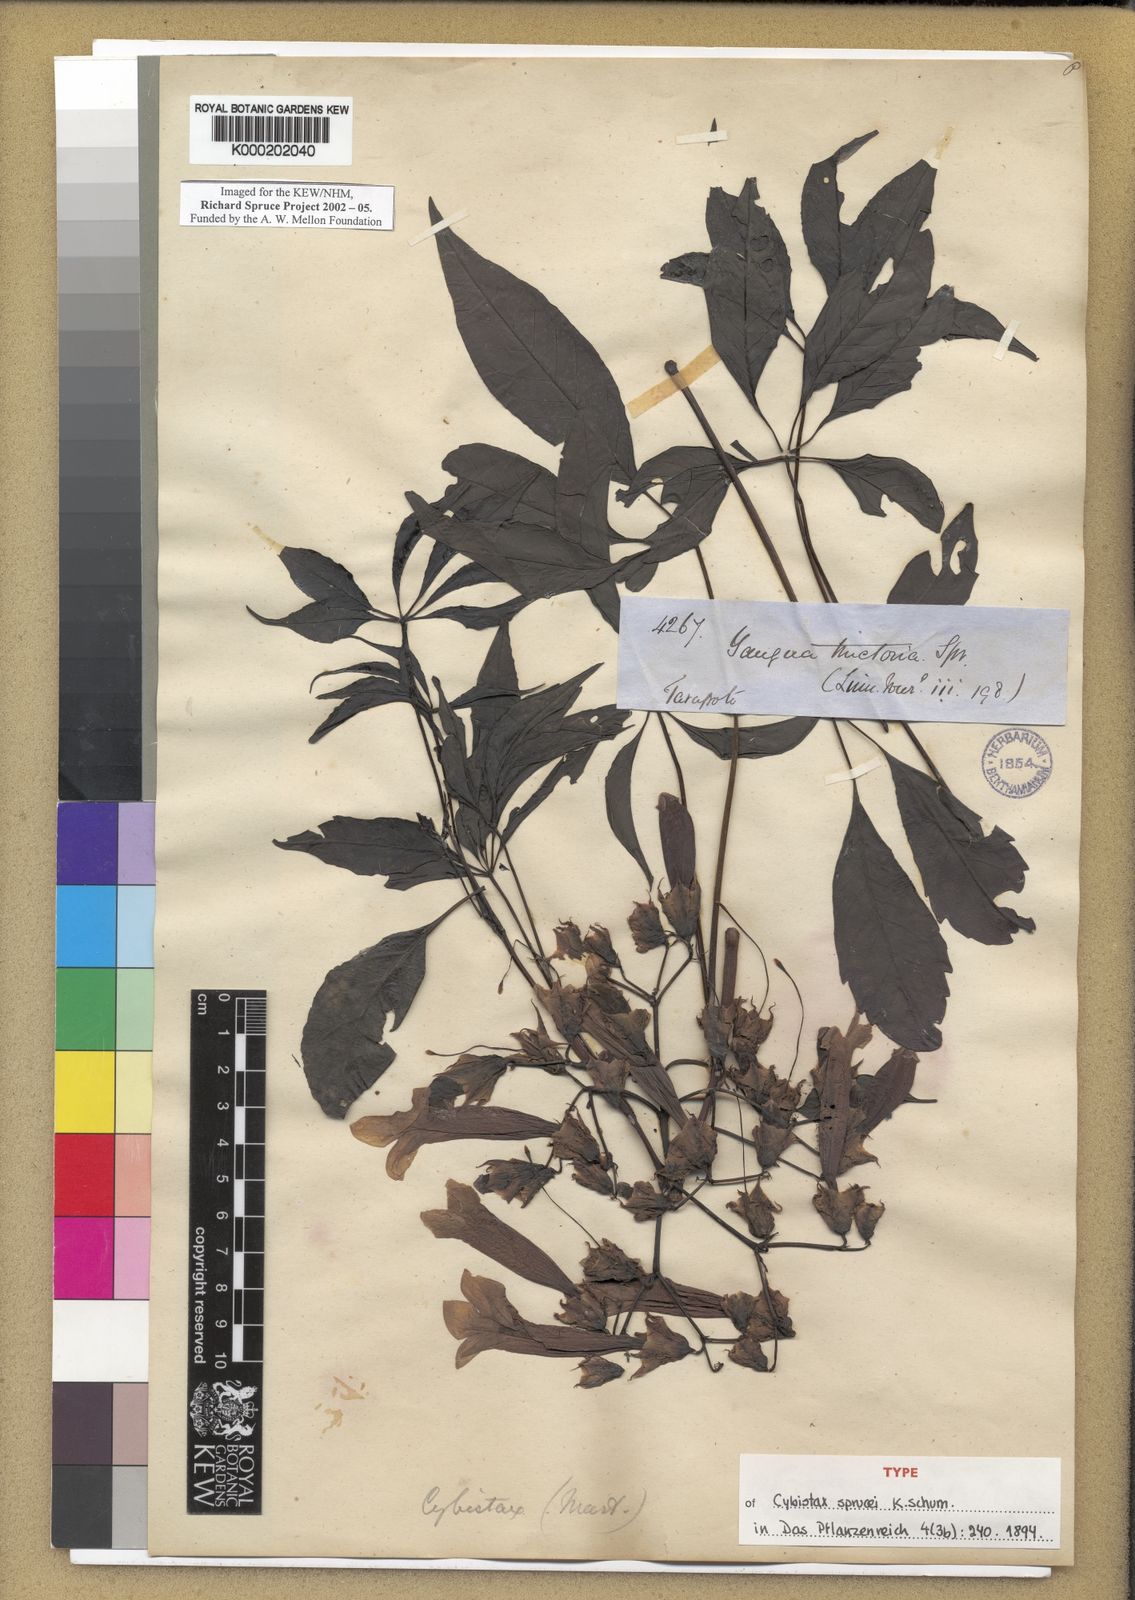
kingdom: Plantae
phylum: Tracheophyta
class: Magnoliopsida
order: Lamiales
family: Bignoniaceae
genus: Cybistax
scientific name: Cybistax antisyphilitica
